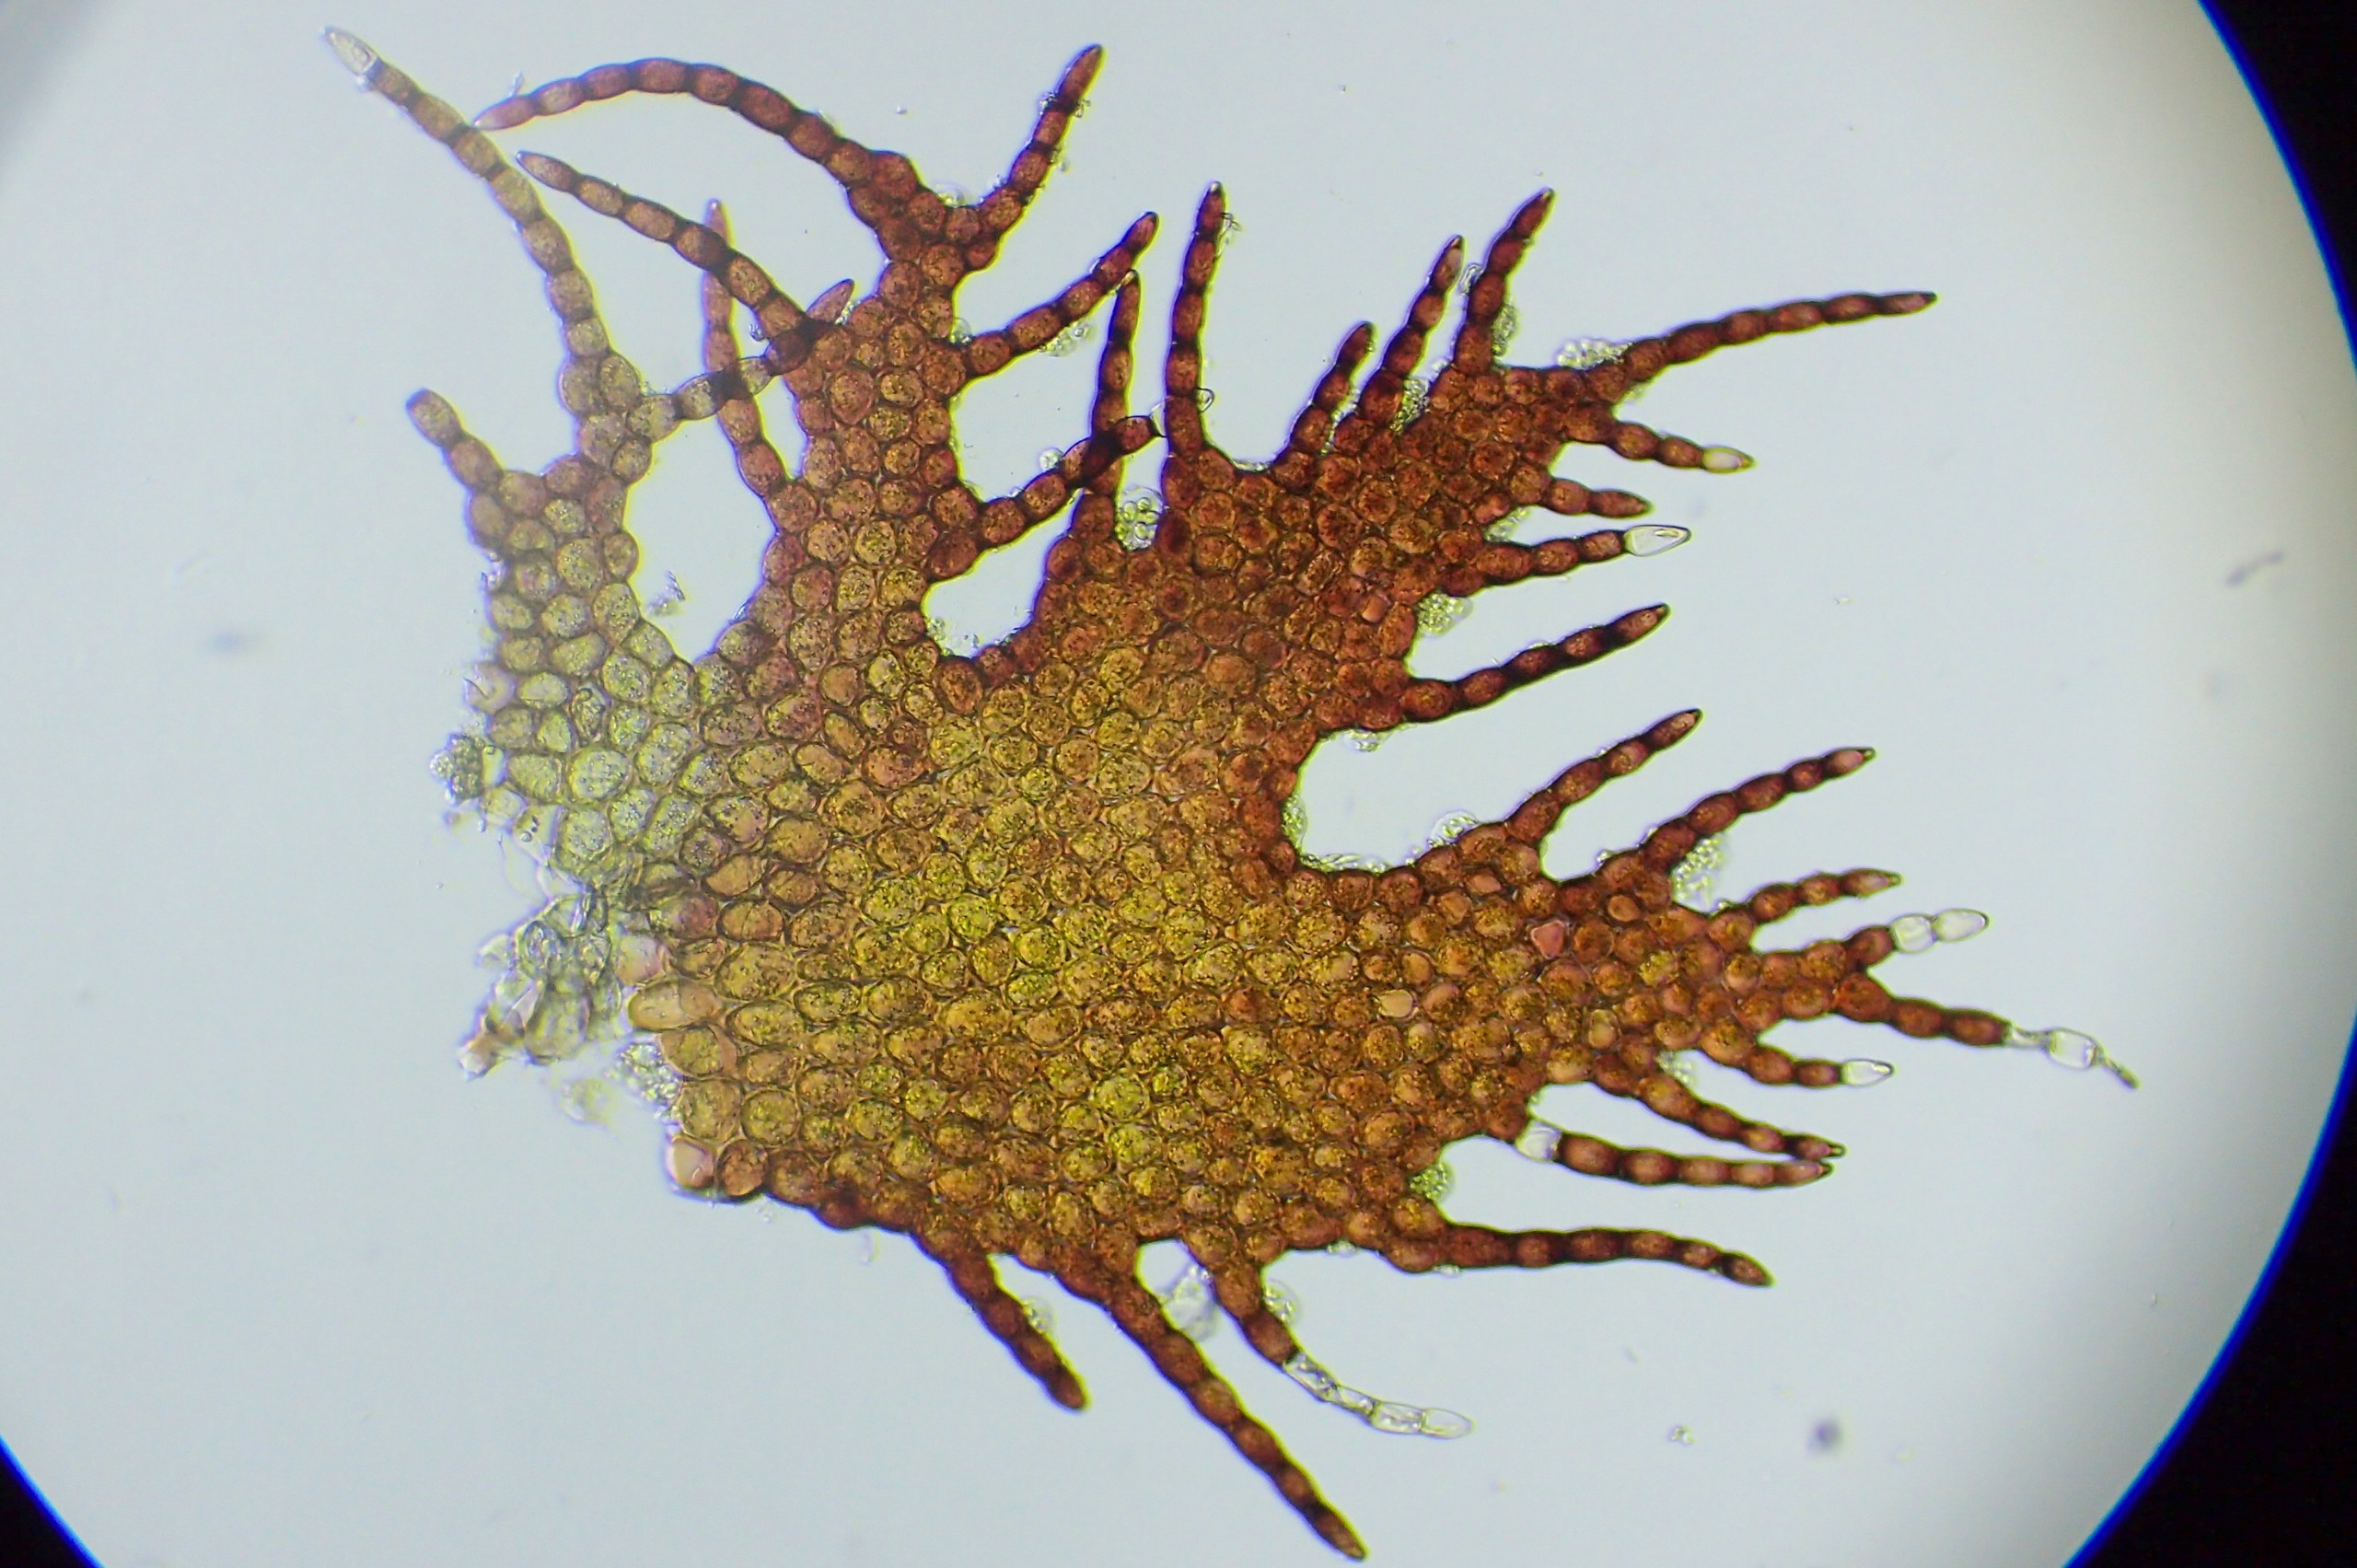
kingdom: Plantae
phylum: Marchantiophyta
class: Jungermanniopsida
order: Ptilidiales
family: Ptilidiaceae
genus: Ptilidium
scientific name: Ptilidium pulcherrimum
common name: Stub-frynsemos
